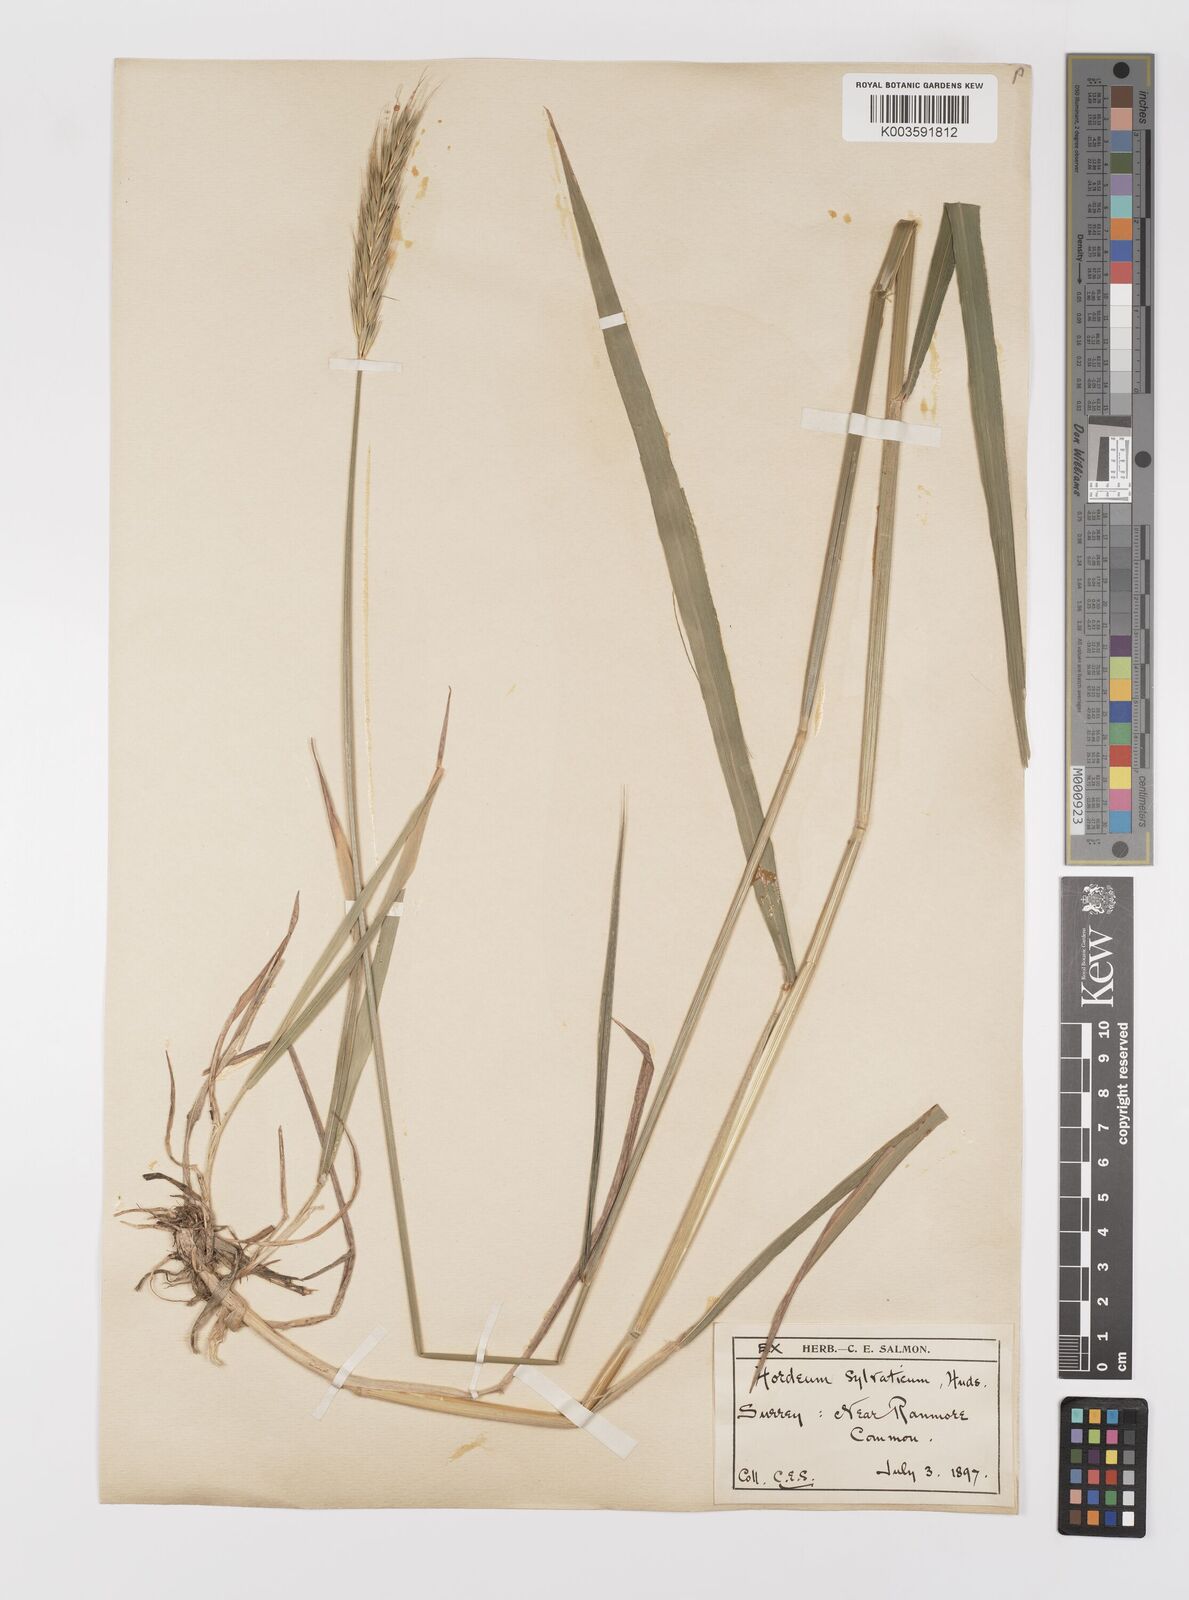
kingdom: Plantae
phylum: Tracheophyta
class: Liliopsida
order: Poales
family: Poaceae
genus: Hordelymus
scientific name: Hordelymus europaeus
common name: Wood-barley
